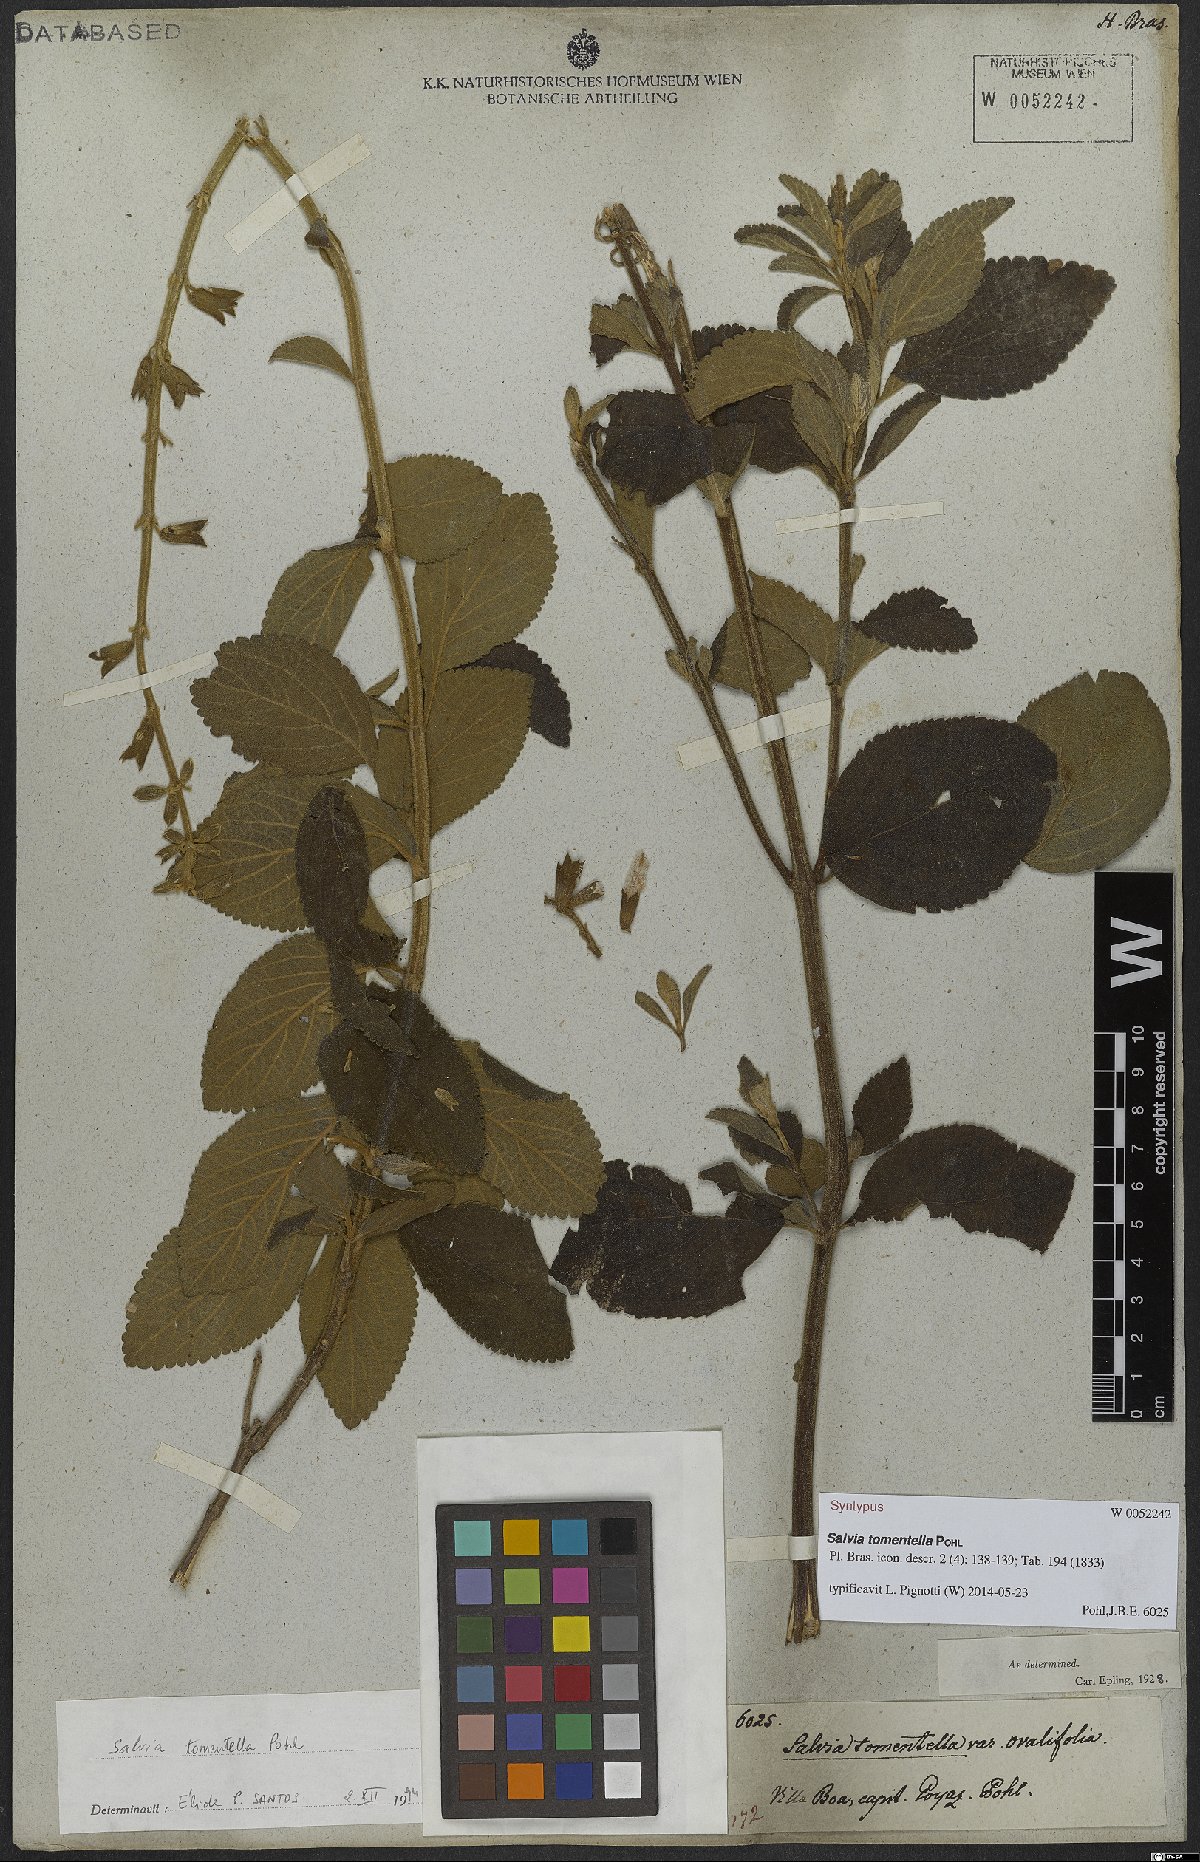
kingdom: Plantae
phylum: Tracheophyta
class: Magnoliopsida
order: Lamiales
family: Lamiaceae
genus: Salvia
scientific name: Salvia tomentella
